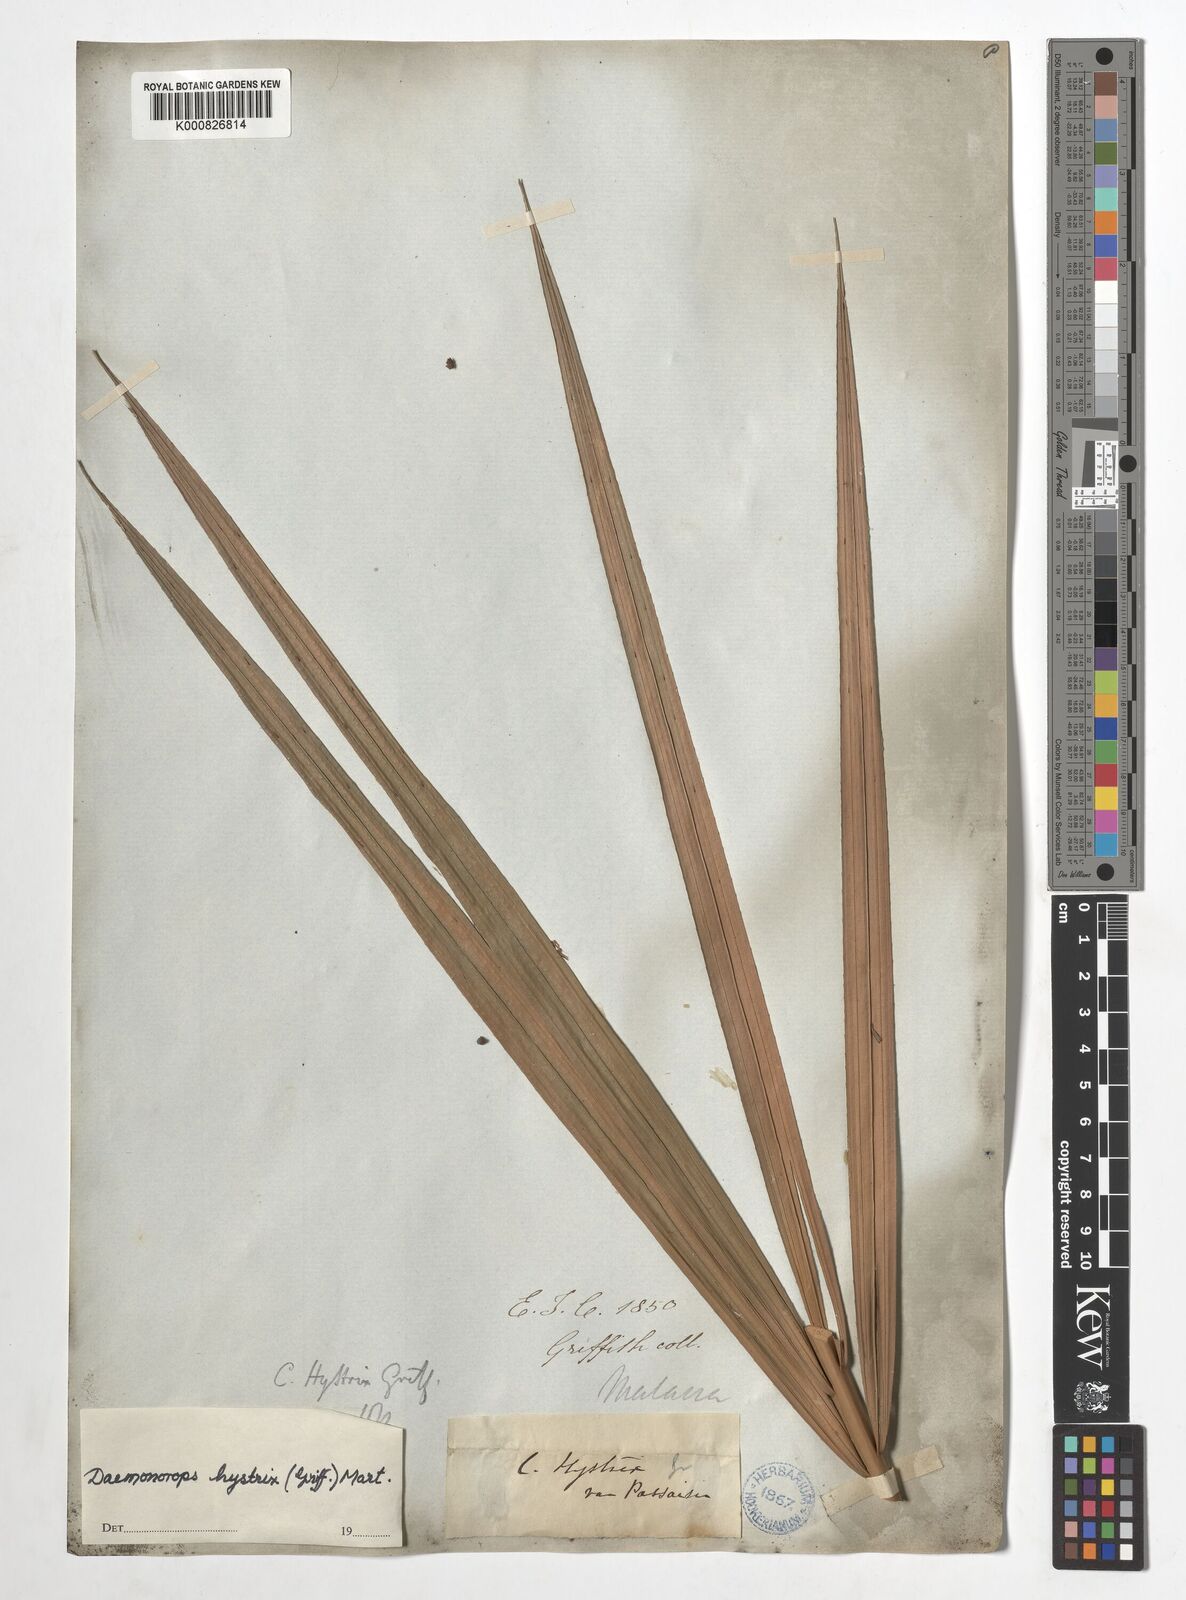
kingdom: Plantae
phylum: Tracheophyta
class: Liliopsida
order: Arecales
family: Arecaceae
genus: Calamus
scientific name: Calamus hirsutus
